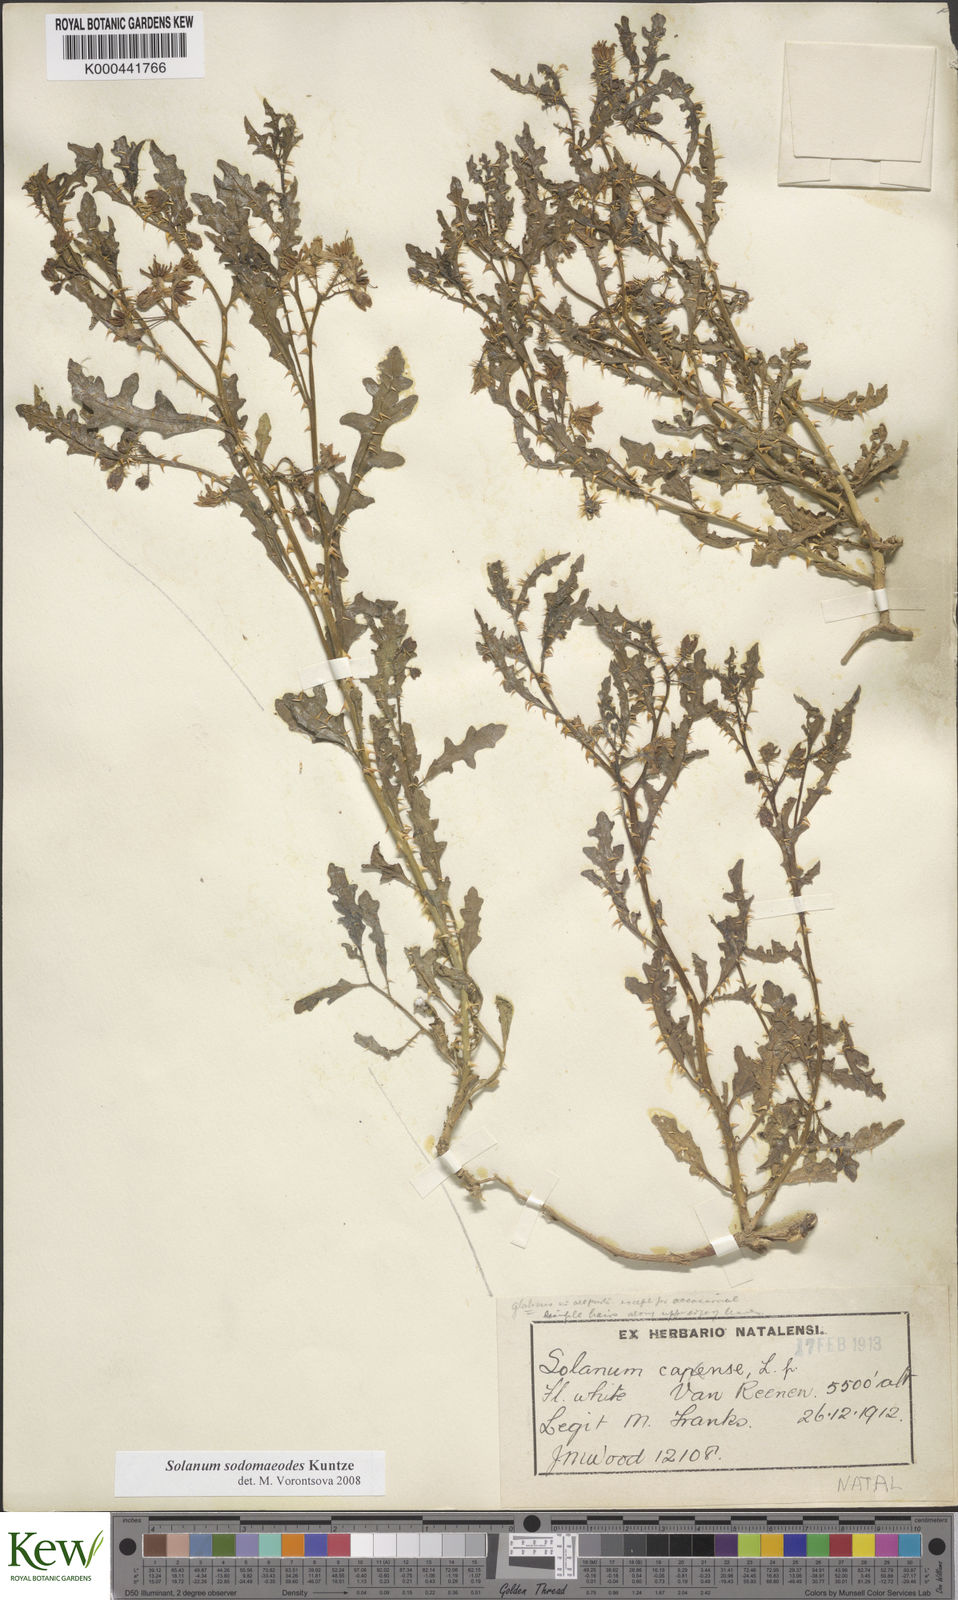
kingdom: Plantae
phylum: Tracheophyta
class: Magnoliopsida
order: Solanales
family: Solanaceae
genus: Solanum
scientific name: Solanum
